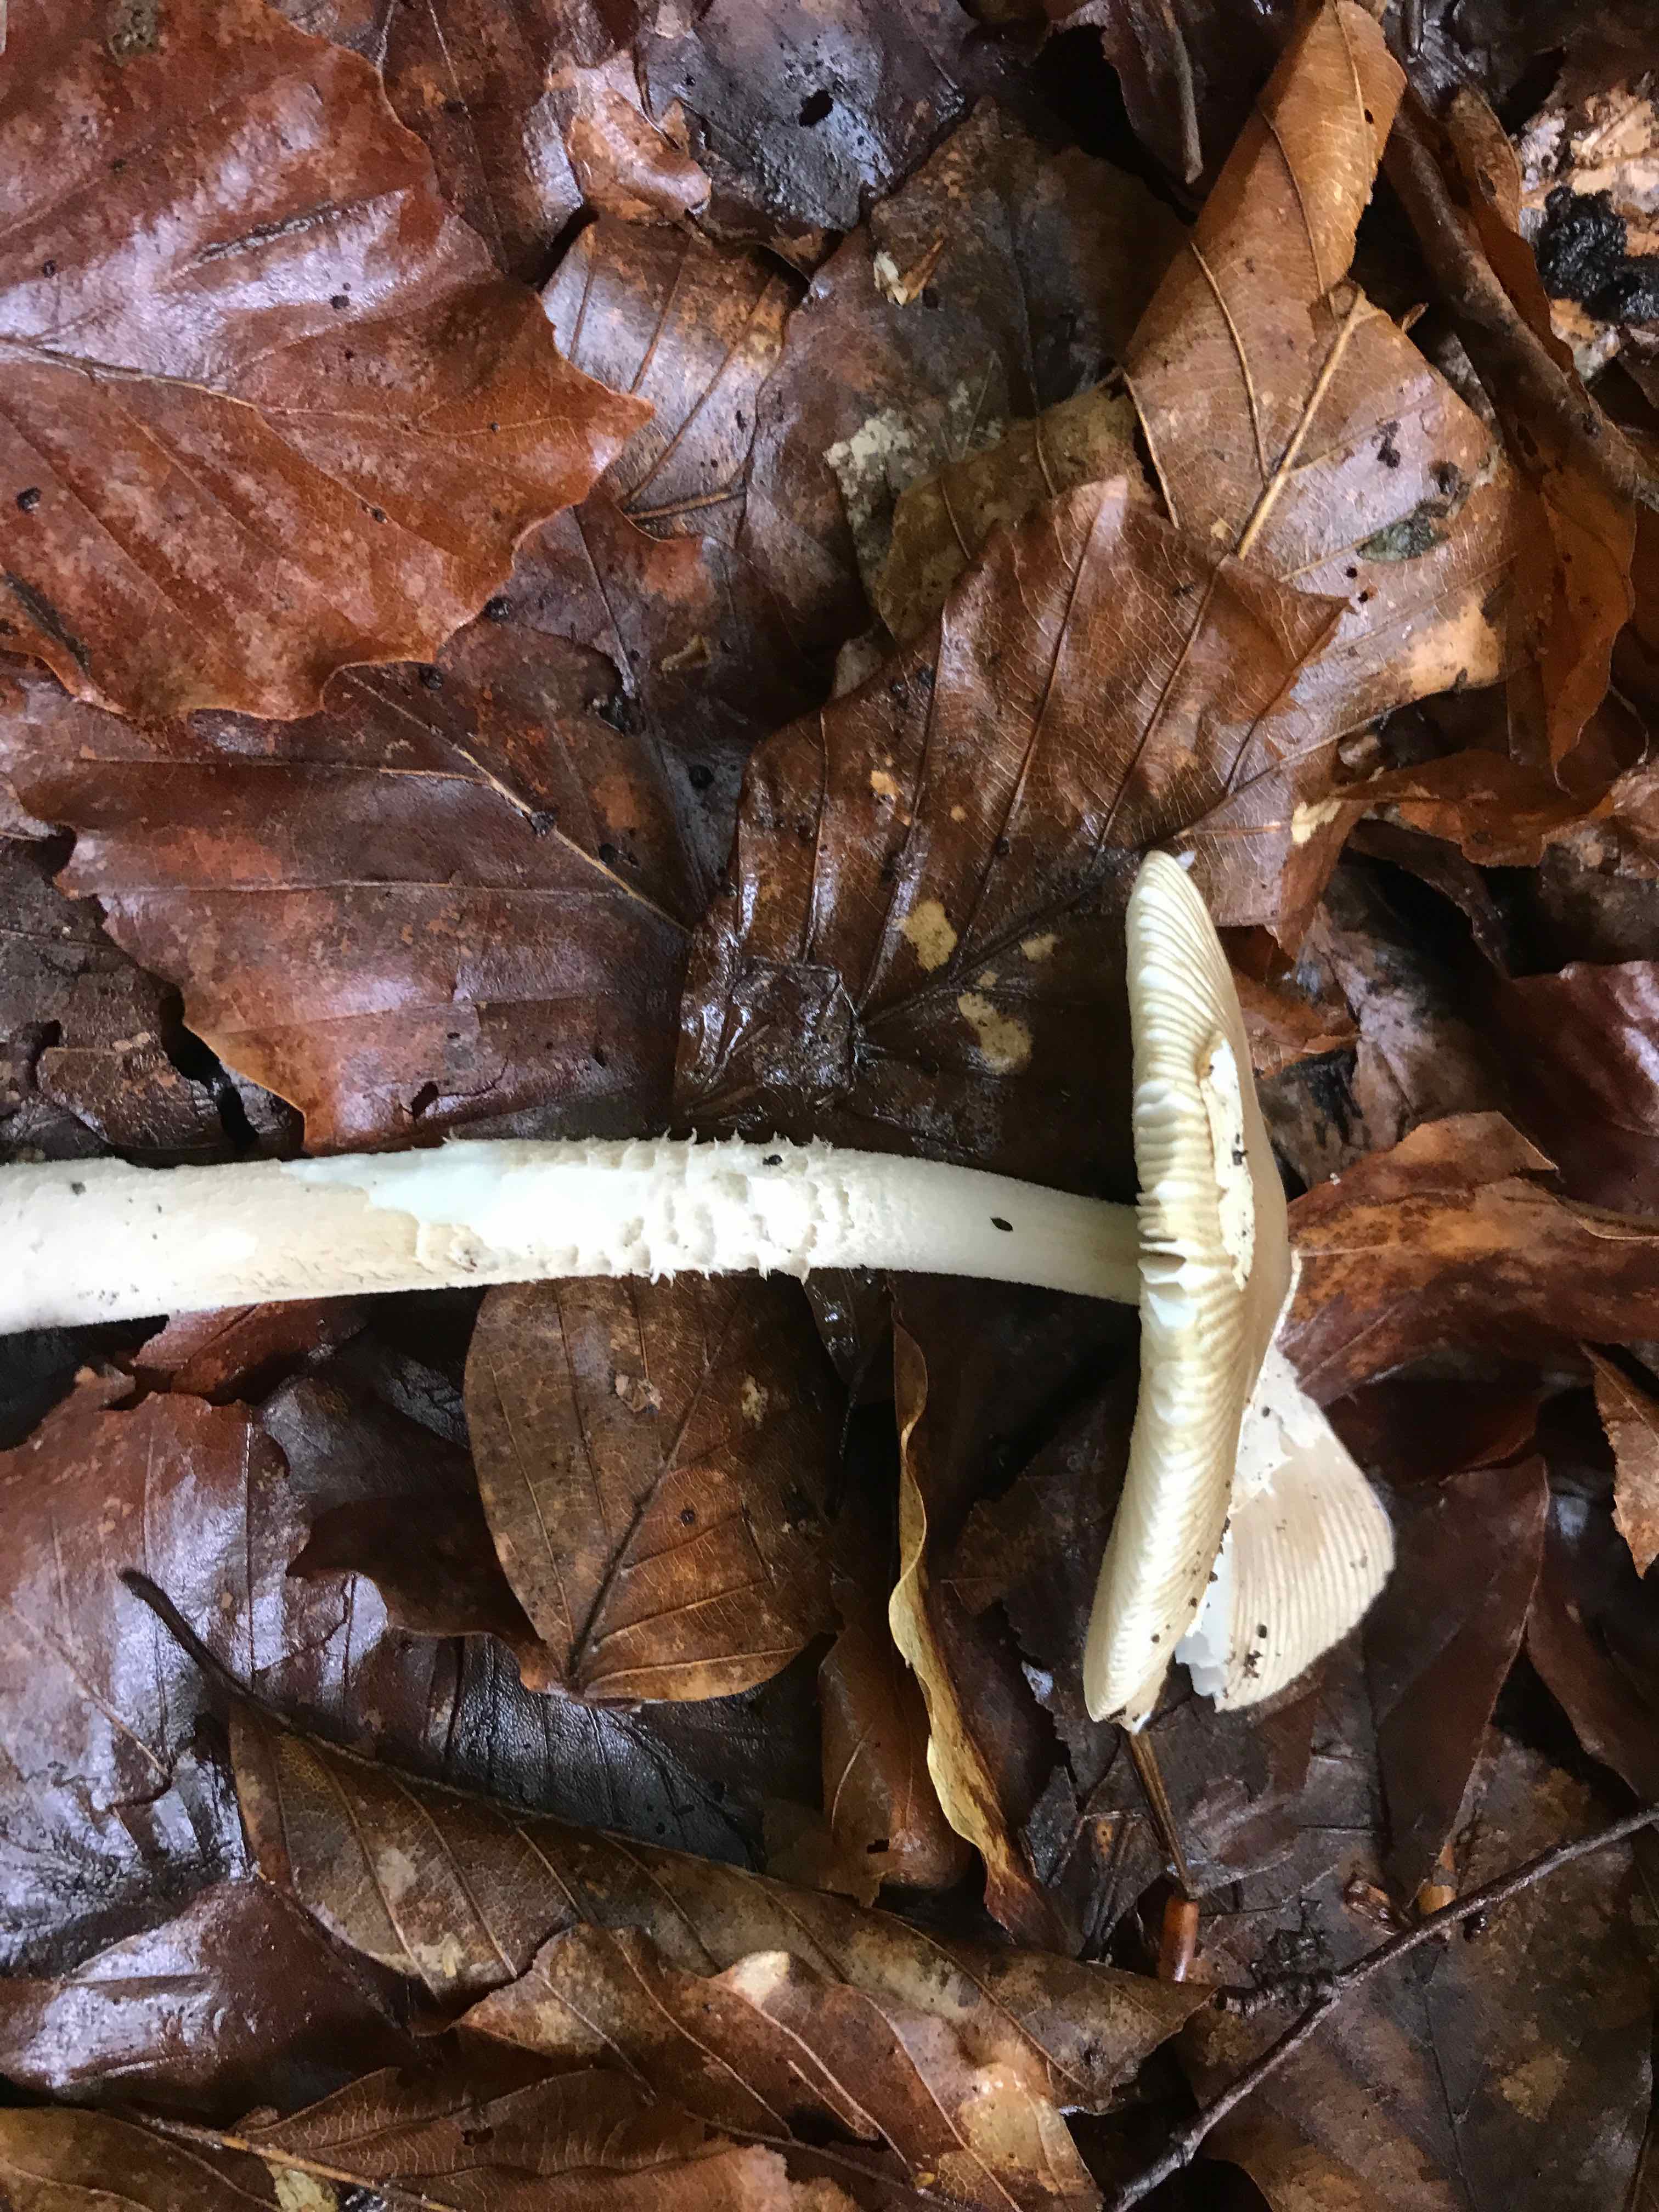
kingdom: Fungi
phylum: Basidiomycota
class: Agaricomycetes
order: Agaricales
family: Amanitaceae
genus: Amanita
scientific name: Amanita
